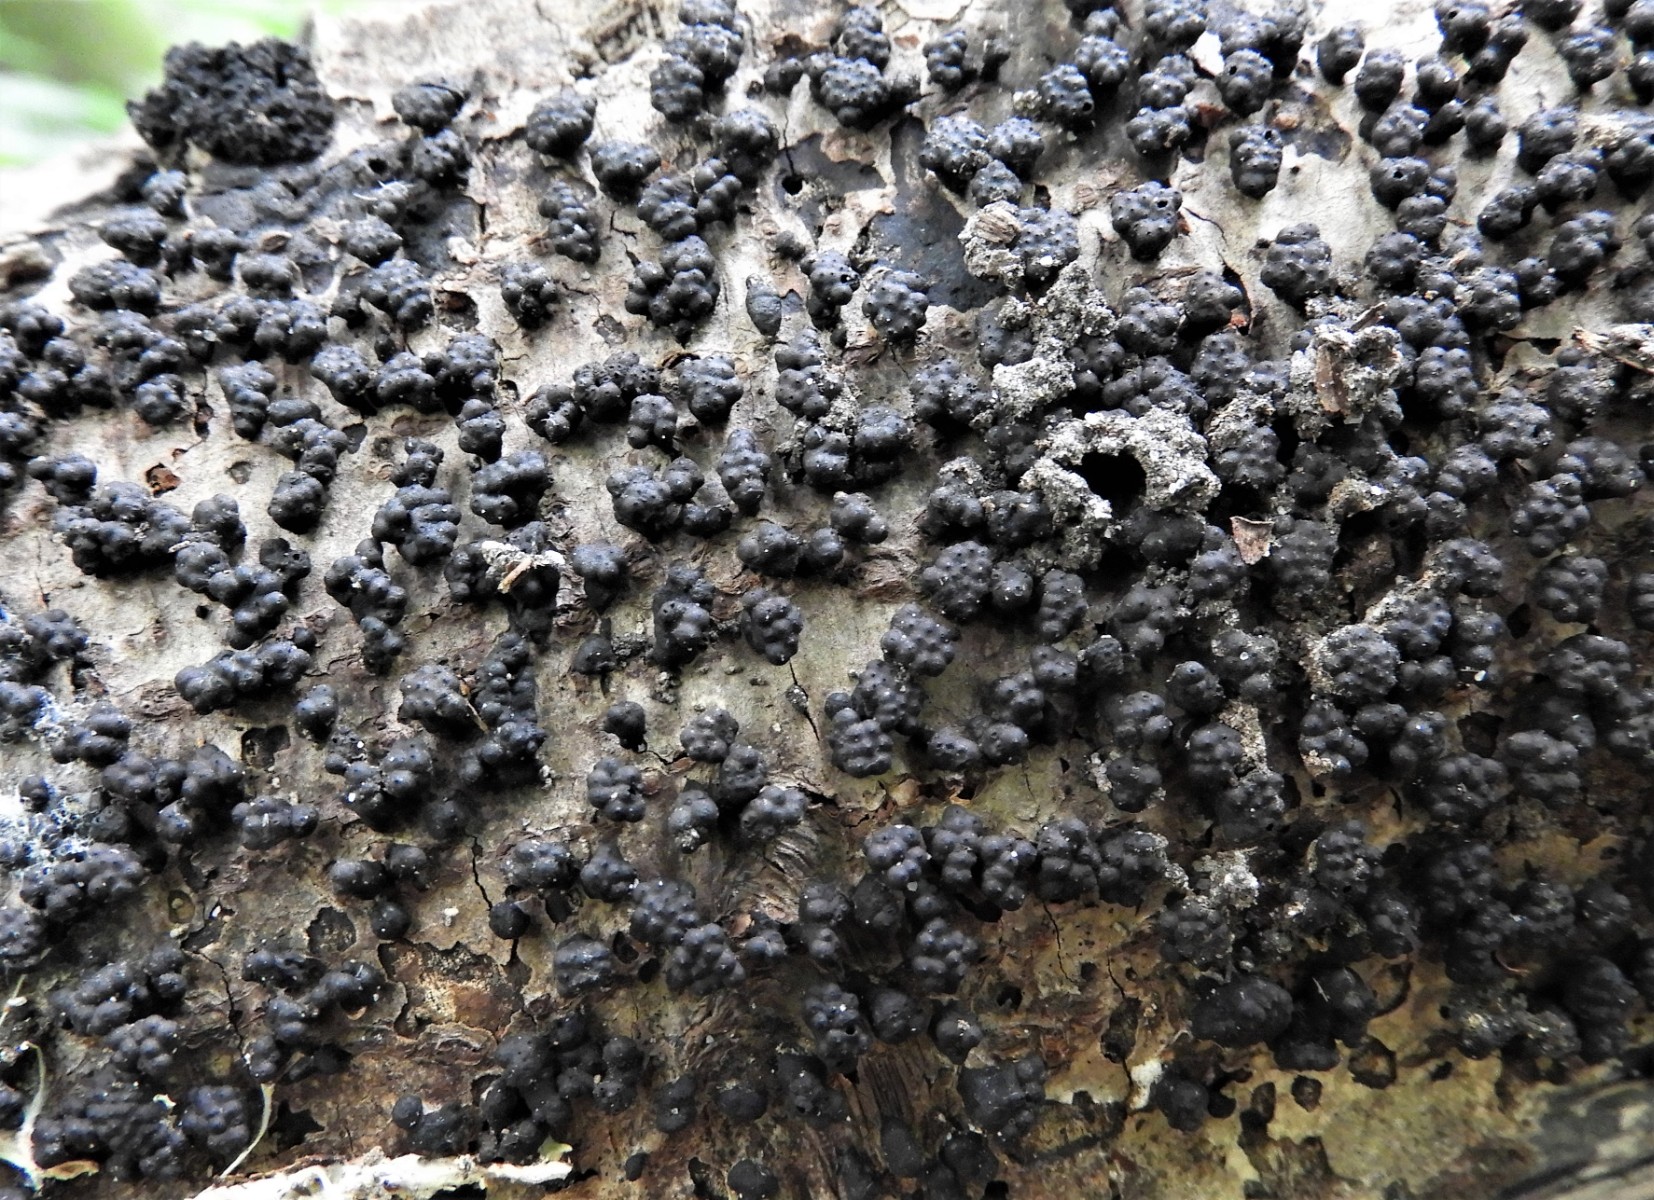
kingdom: Fungi
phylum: Ascomycota
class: Sordariomycetes
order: Xylariales
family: Hypoxylaceae
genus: Jackrogersella
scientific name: Jackrogersella cohaerens
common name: sammenflydende kulbær
